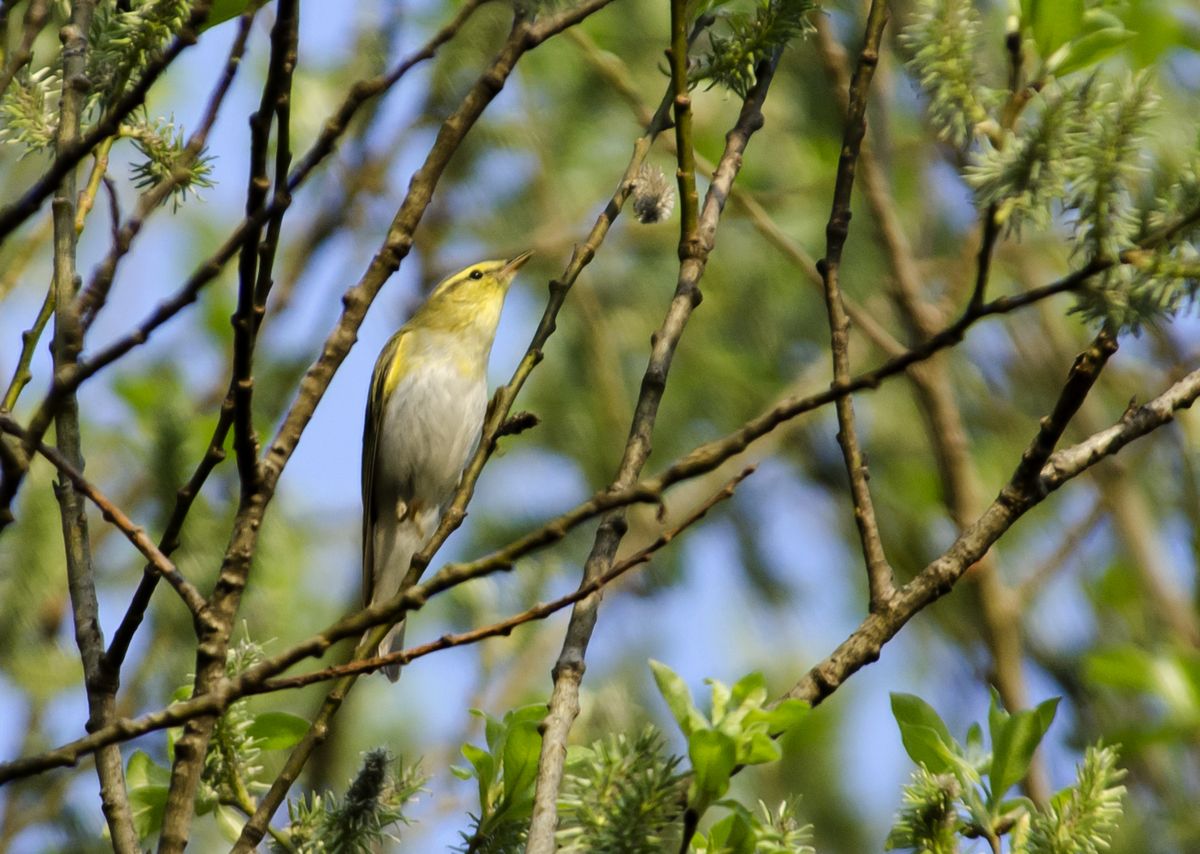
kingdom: Animalia
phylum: Chordata
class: Aves
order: Passeriformes
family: Phylloscopidae
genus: Phylloscopus
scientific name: Phylloscopus sibillatrix
